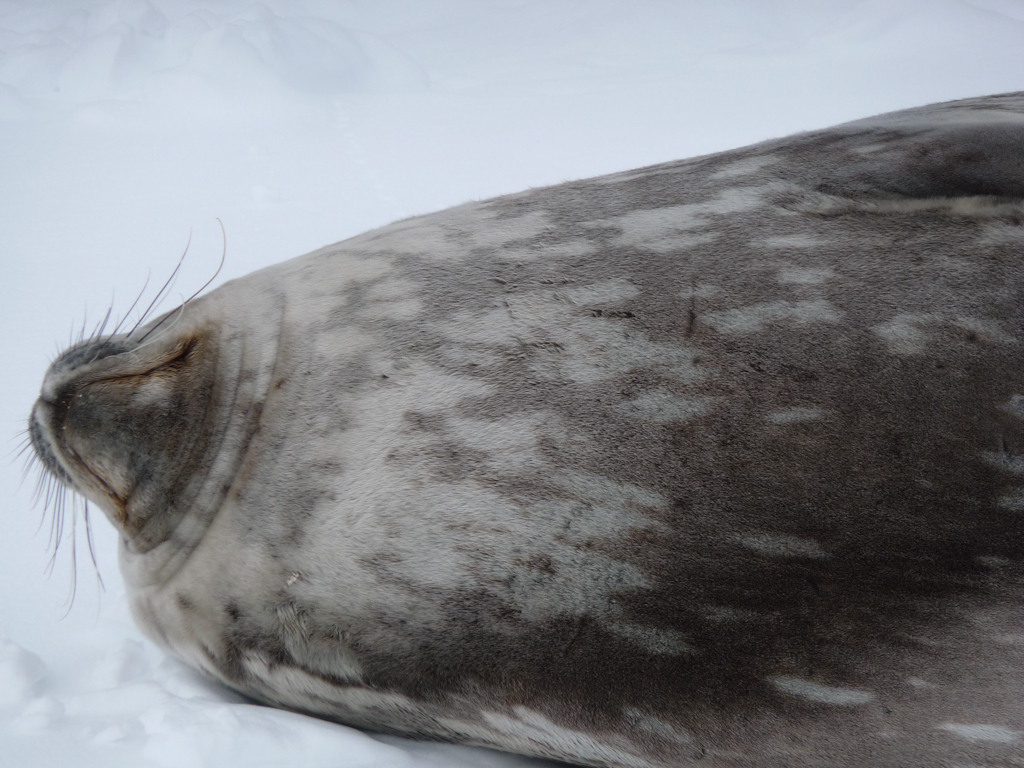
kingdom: Animalia
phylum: Chordata
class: Mammalia
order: Carnivora
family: Phocidae
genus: Leptonychotes
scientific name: Leptonychotes weddellii
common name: Weddell Seal
